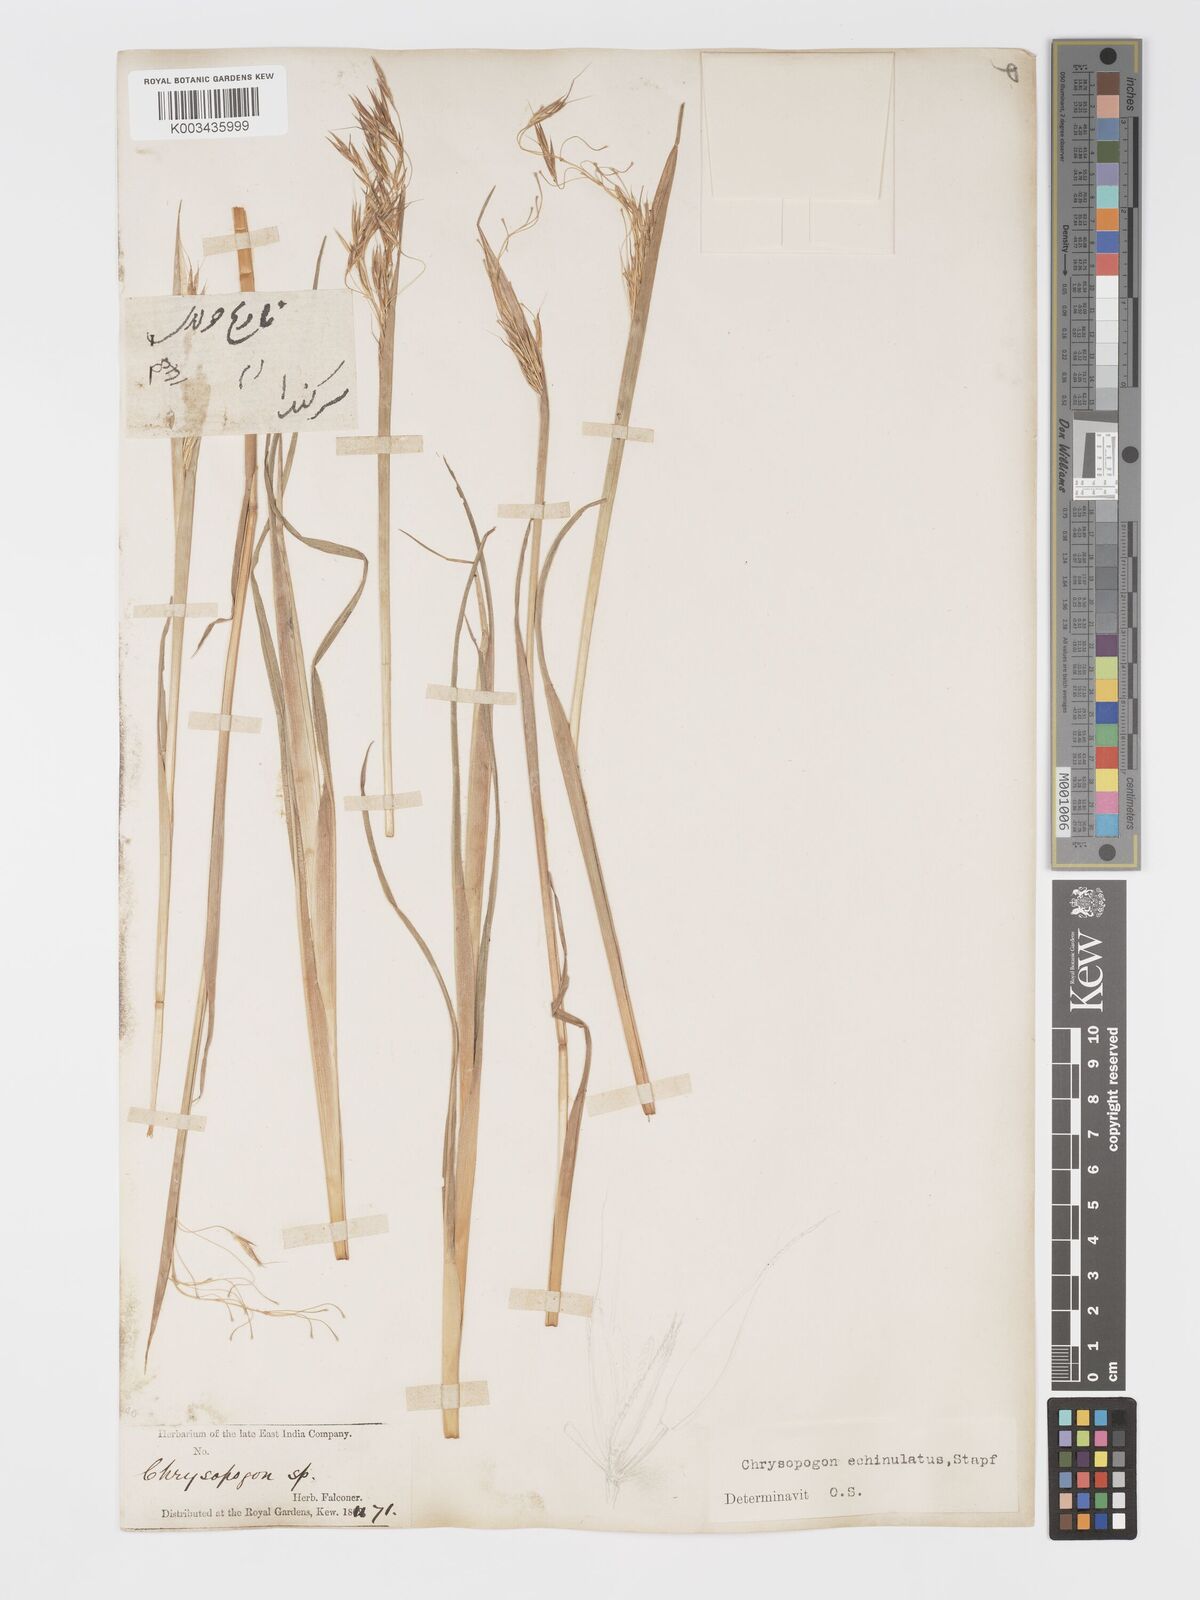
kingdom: Plantae
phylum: Tracheophyta
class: Liliopsida
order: Poales
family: Poaceae
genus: Chrysopogon
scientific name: Chrysopogon gryllus
